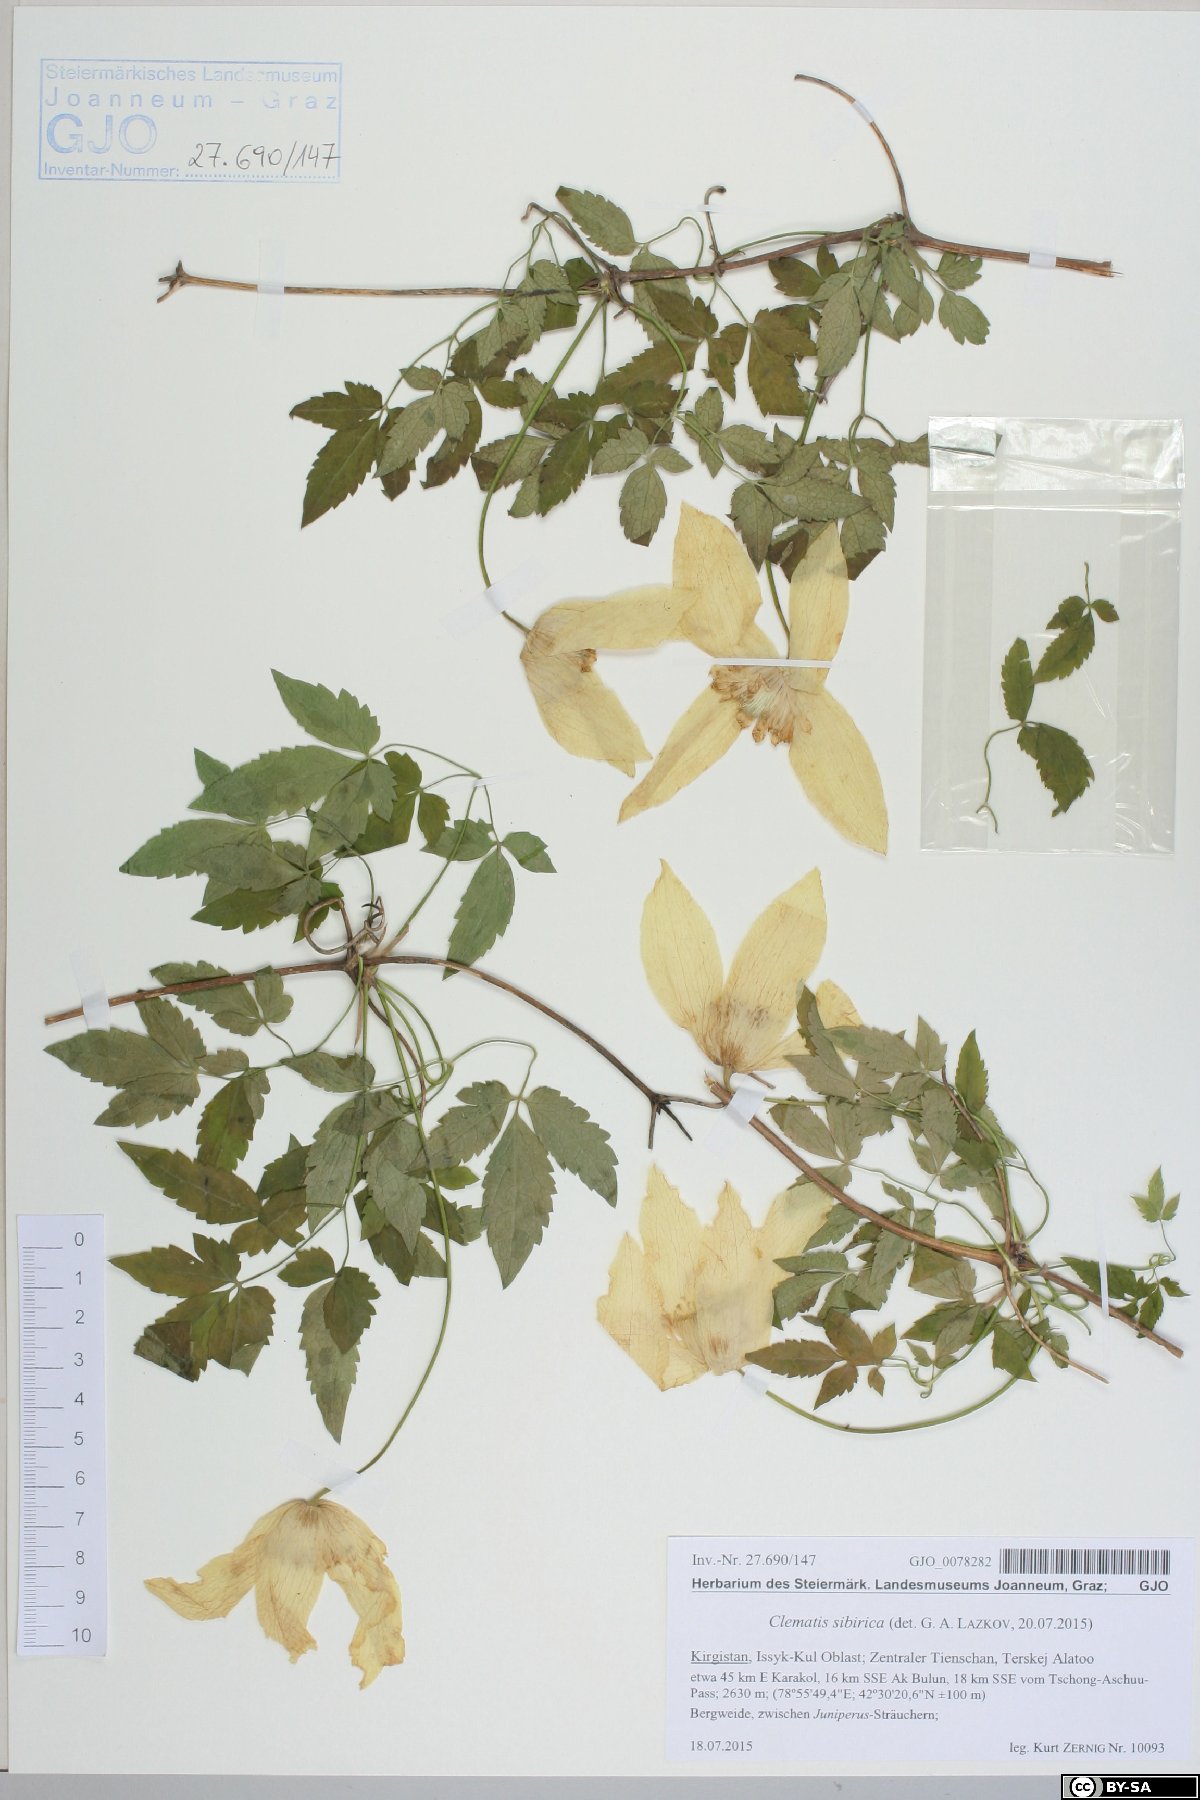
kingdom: Plantae
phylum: Tracheophyta
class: Magnoliopsida
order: Ranunculales
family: Ranunculaceae
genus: Clematis
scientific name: Clematis sibirica
